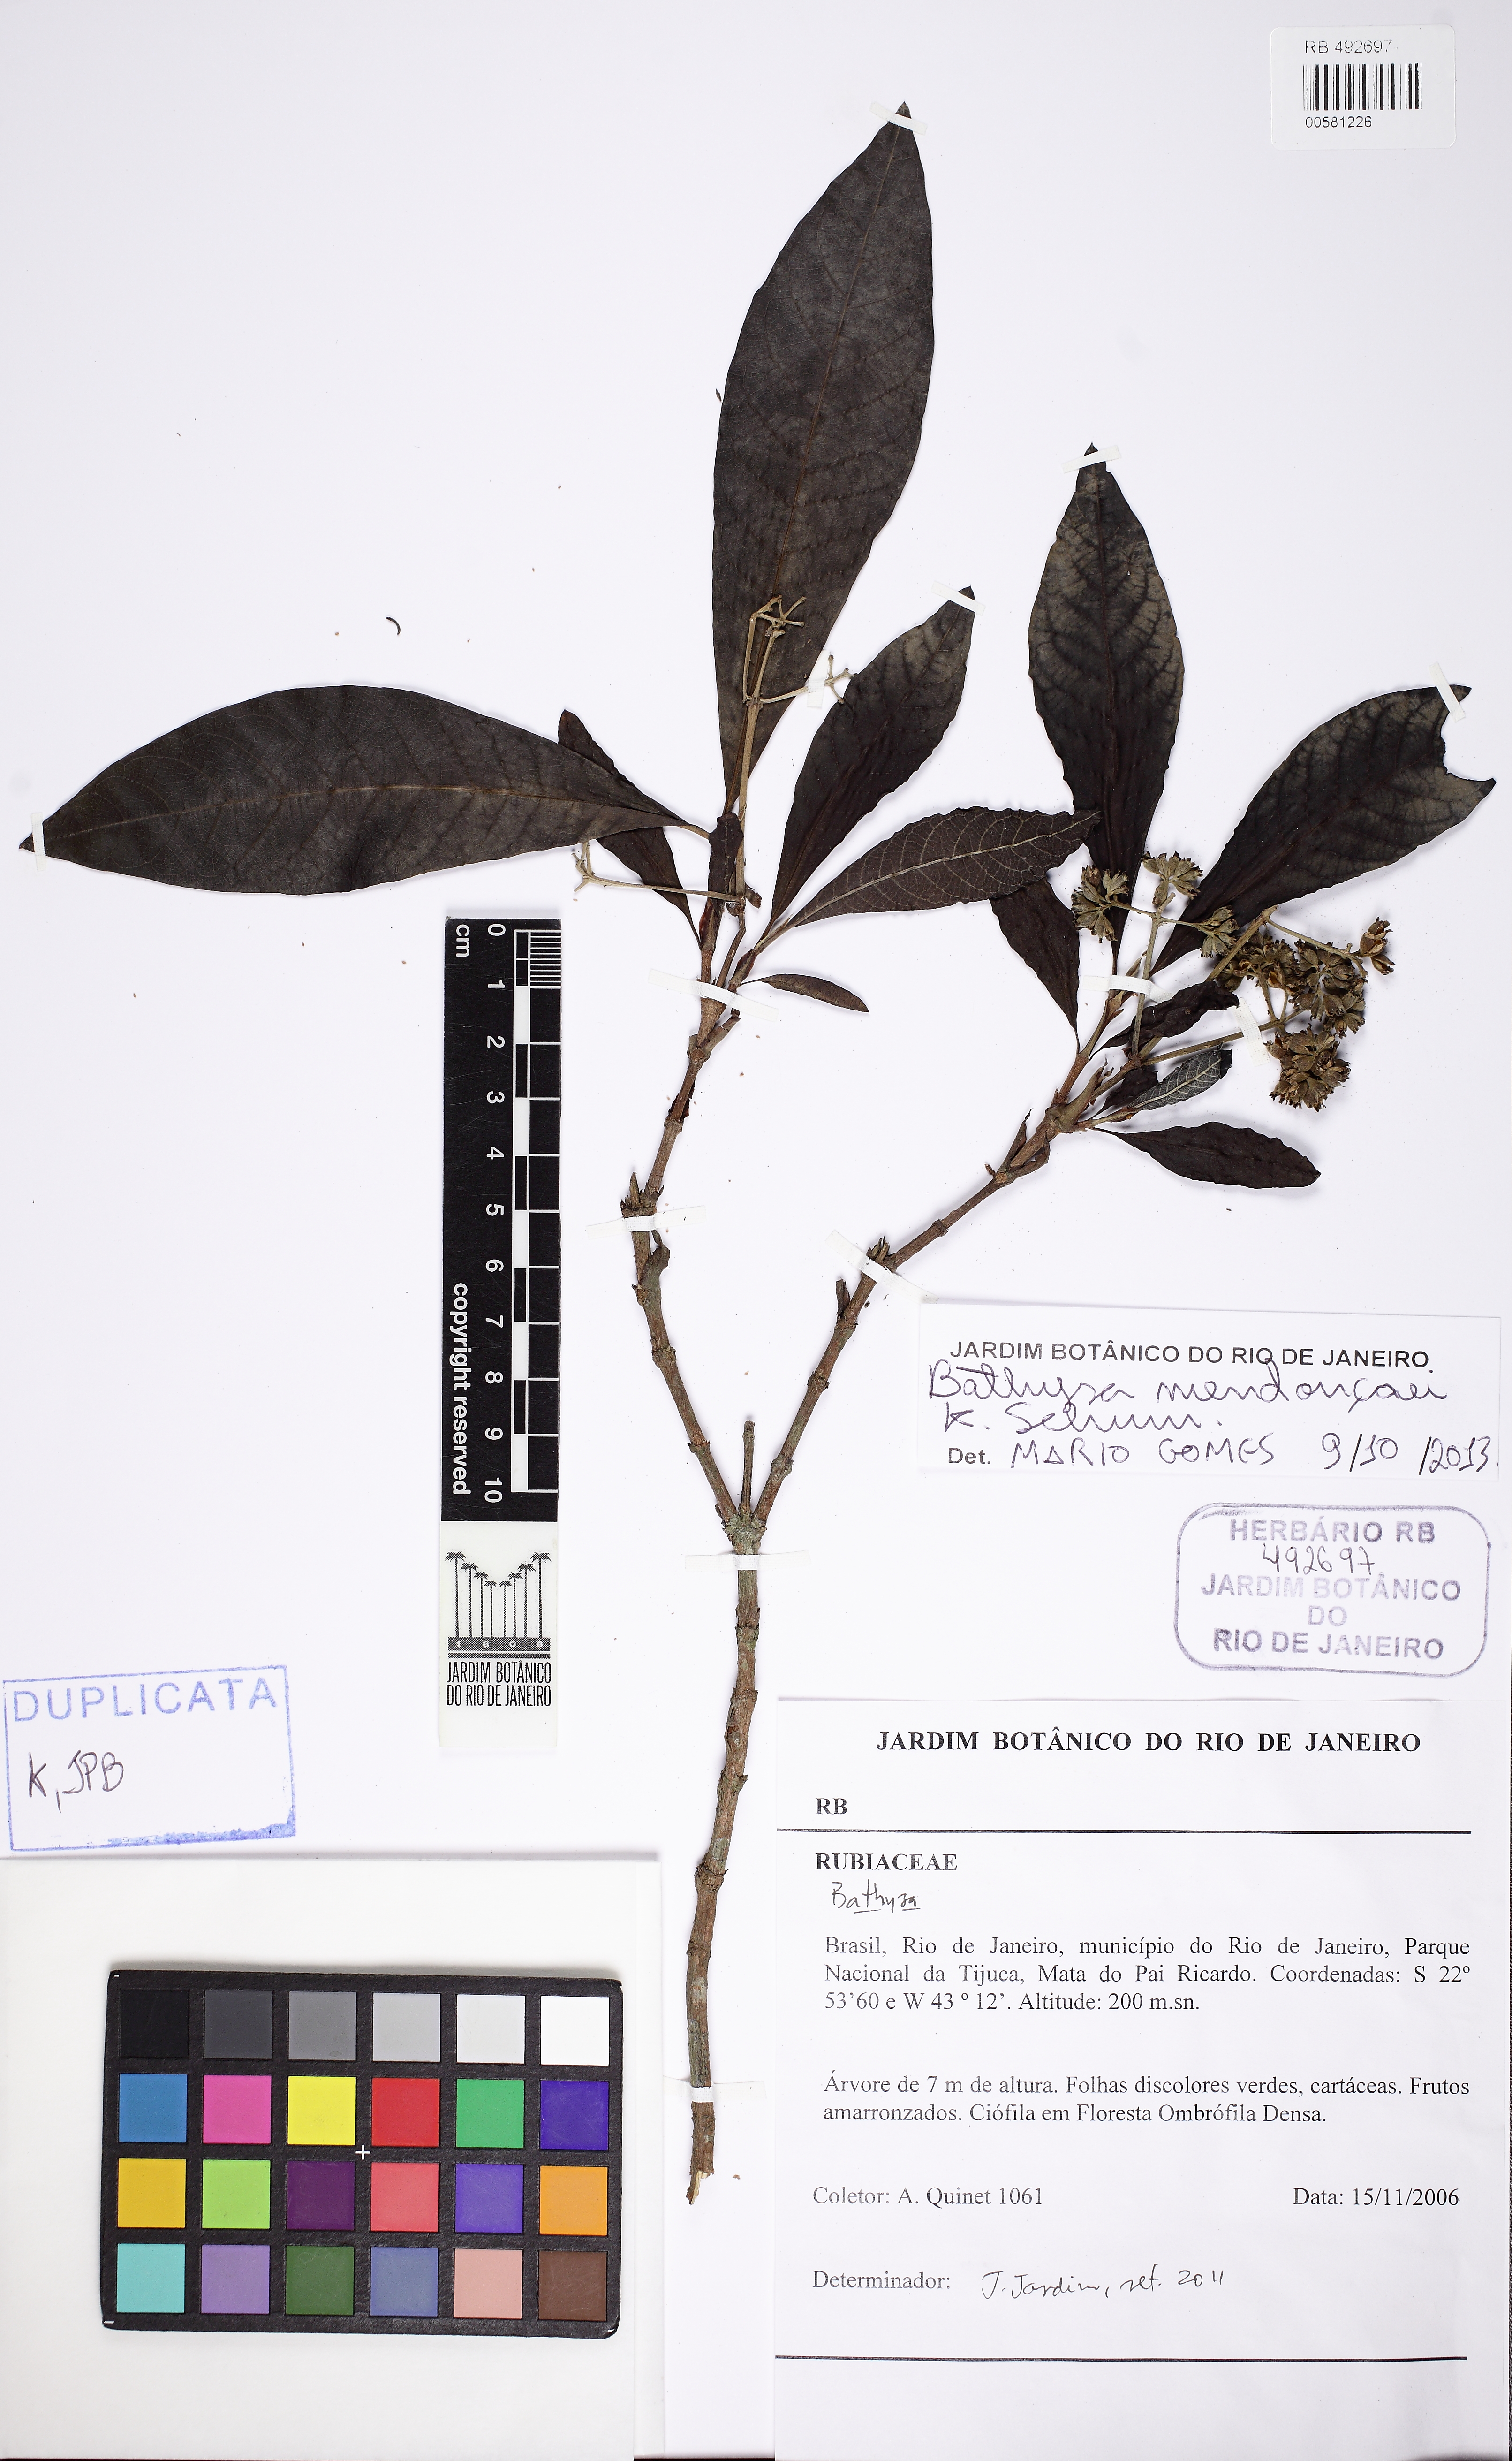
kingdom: Plantae
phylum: Tracheophyta
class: Magnoliopsida
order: Gentianales
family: Rubiaceae
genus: Bathysa
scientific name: Bathysa mendoncaei
